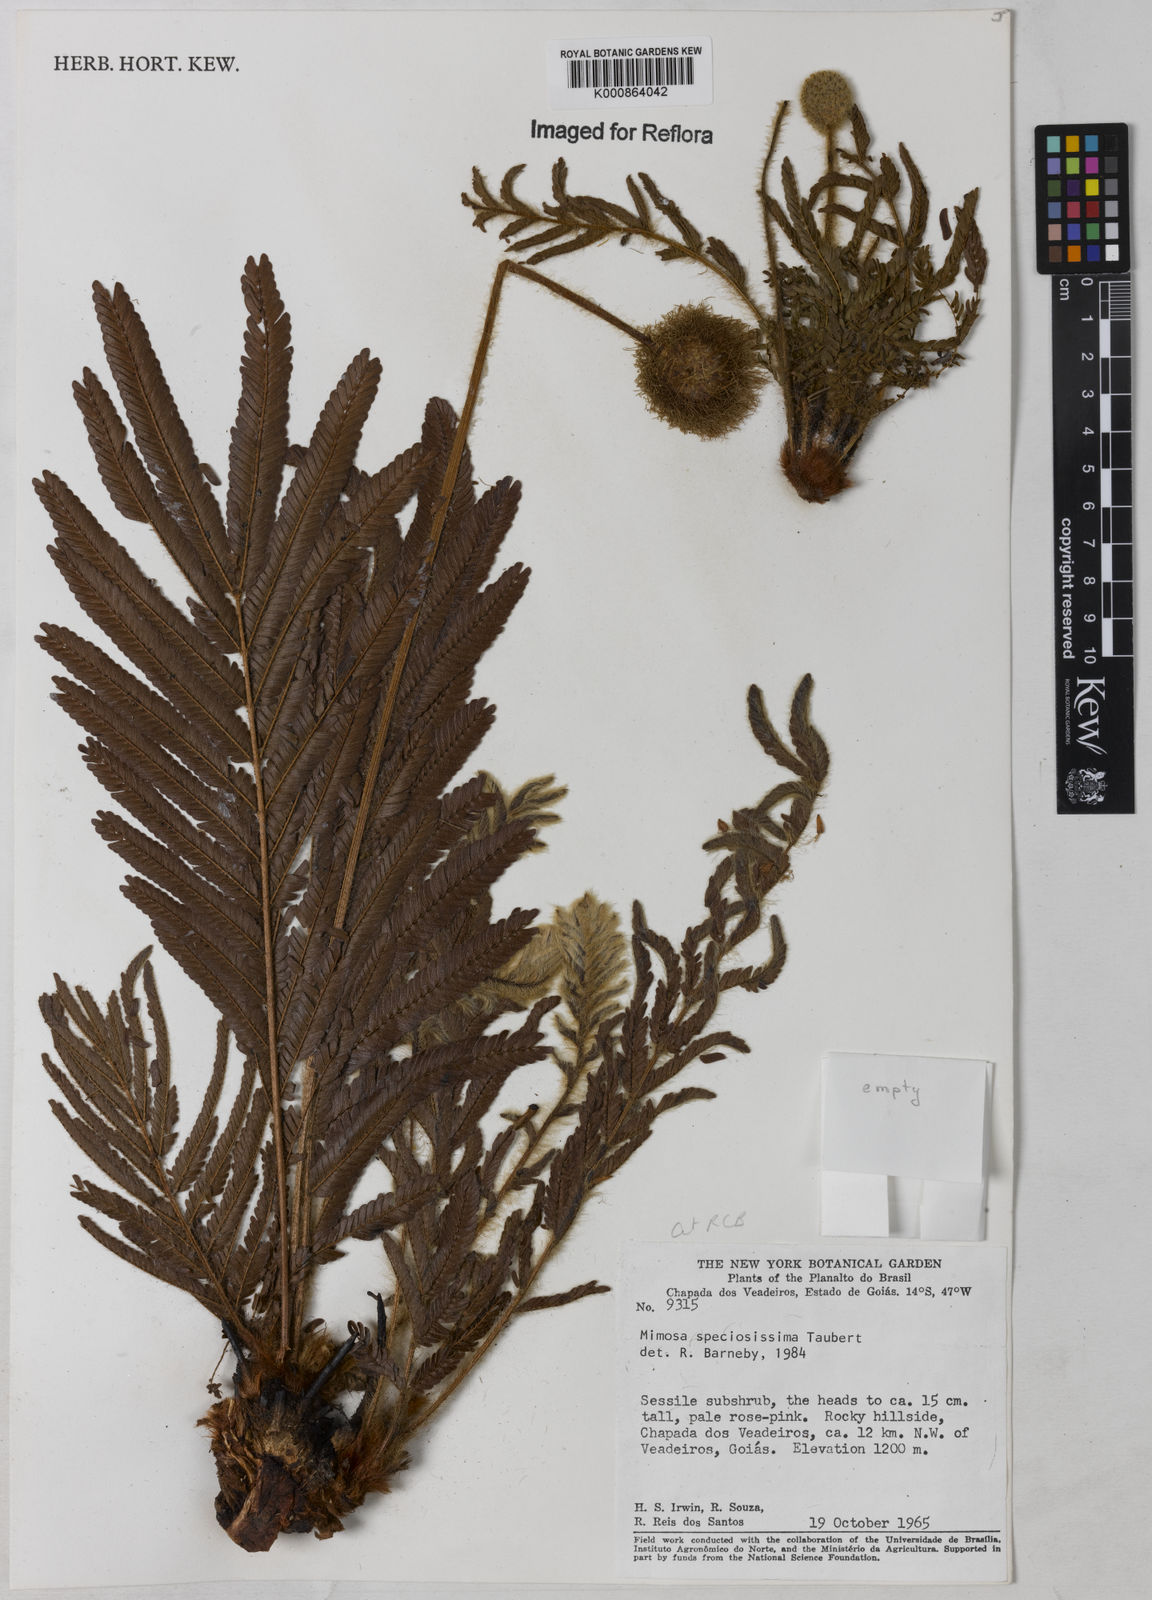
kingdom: Plantae
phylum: Tracheophyta
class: Magnoliopsida
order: Fabales
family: Fabaceae
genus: Mimosa
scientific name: Mimosa speciosissima
